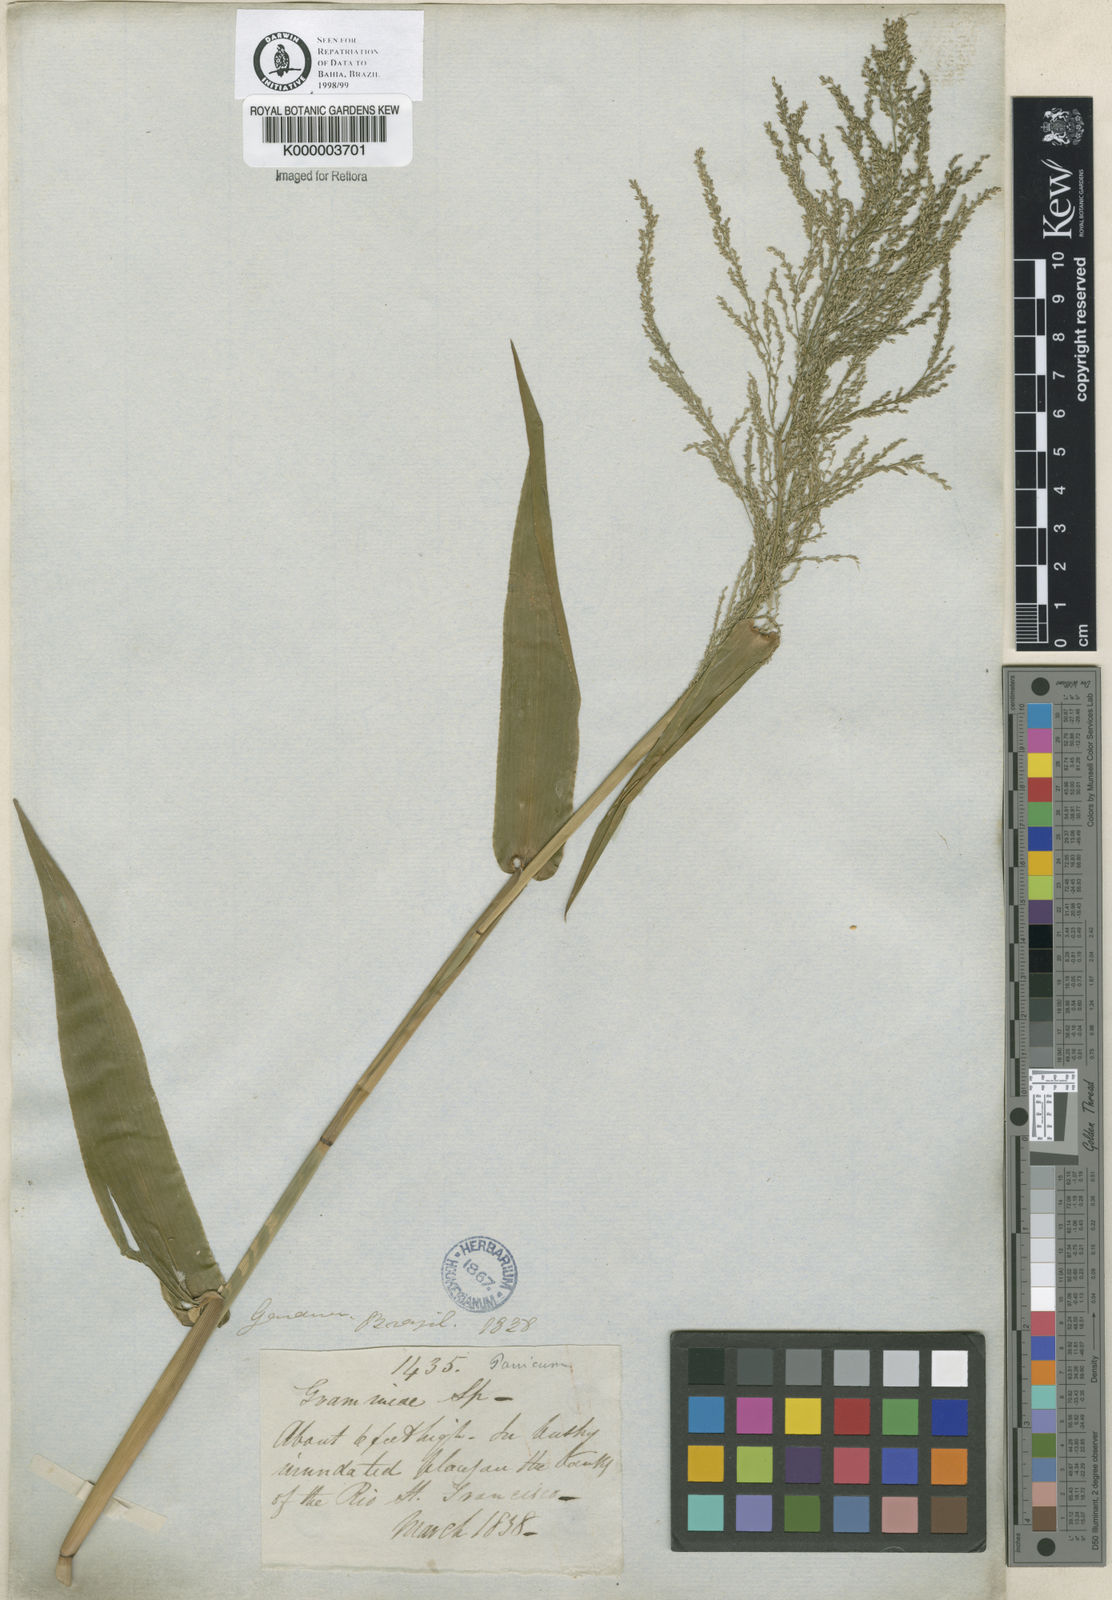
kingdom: Plantae
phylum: Tracheophyta
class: Liliopsida
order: Poales
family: Poaceae
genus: Rugoloa
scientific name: Rugoloa hylaeica
